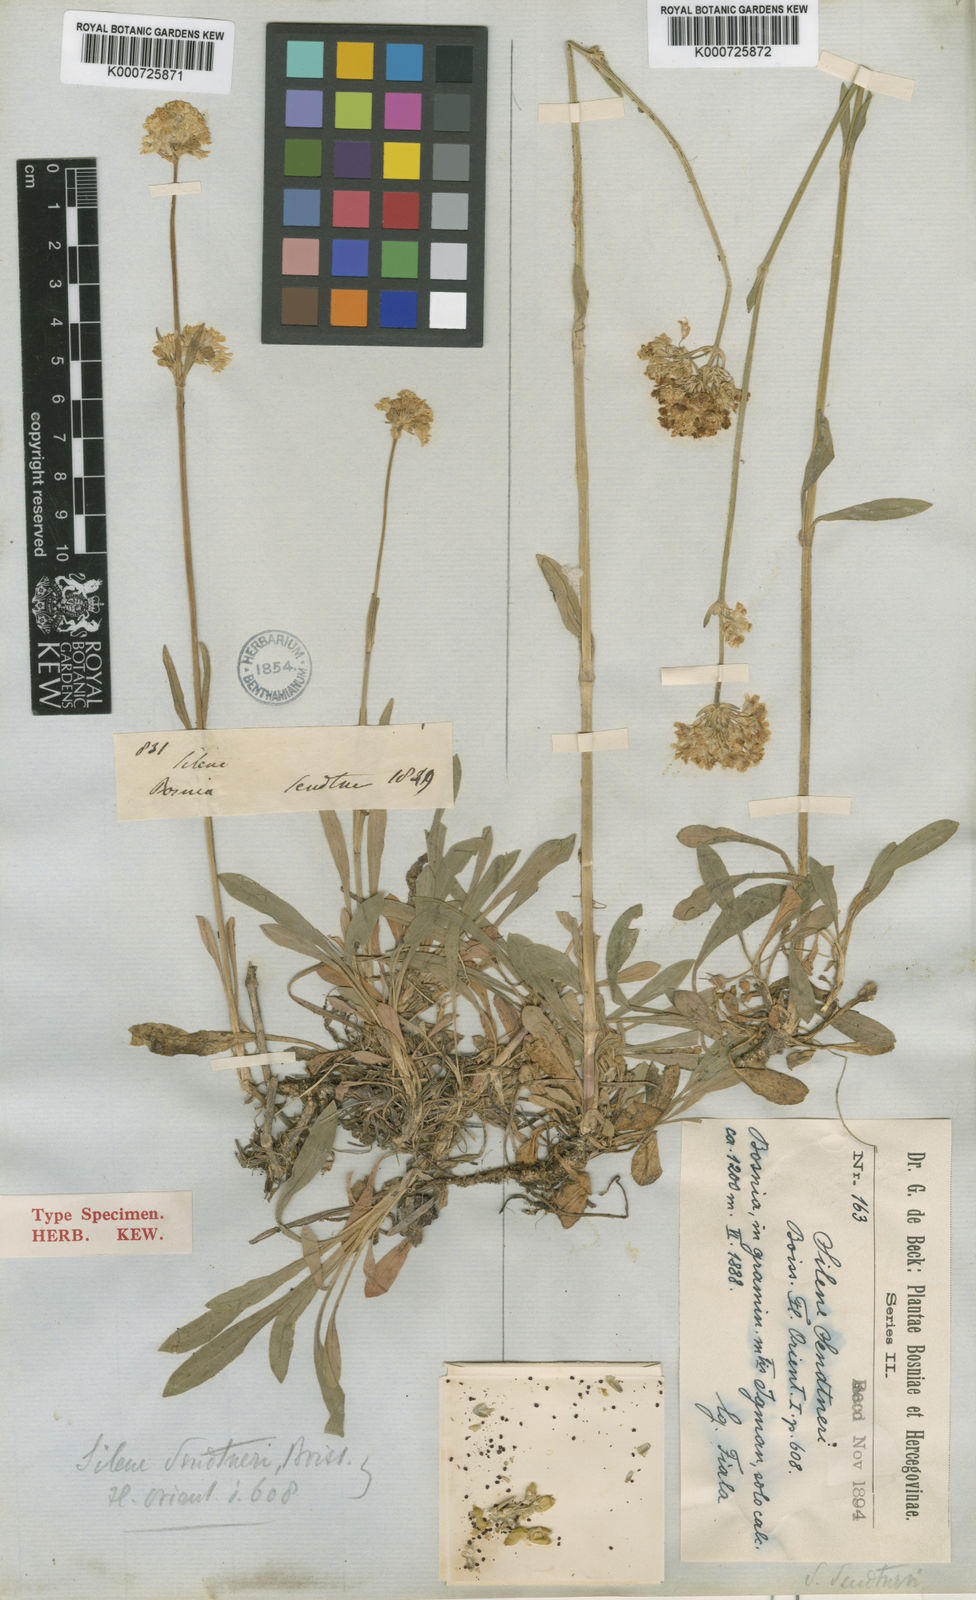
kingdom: Plantae
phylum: Tracheophyta
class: Magnoliopsida
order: Caryophyllales
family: Caryophyllaceae
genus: Silene
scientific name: Silene sendtneri
